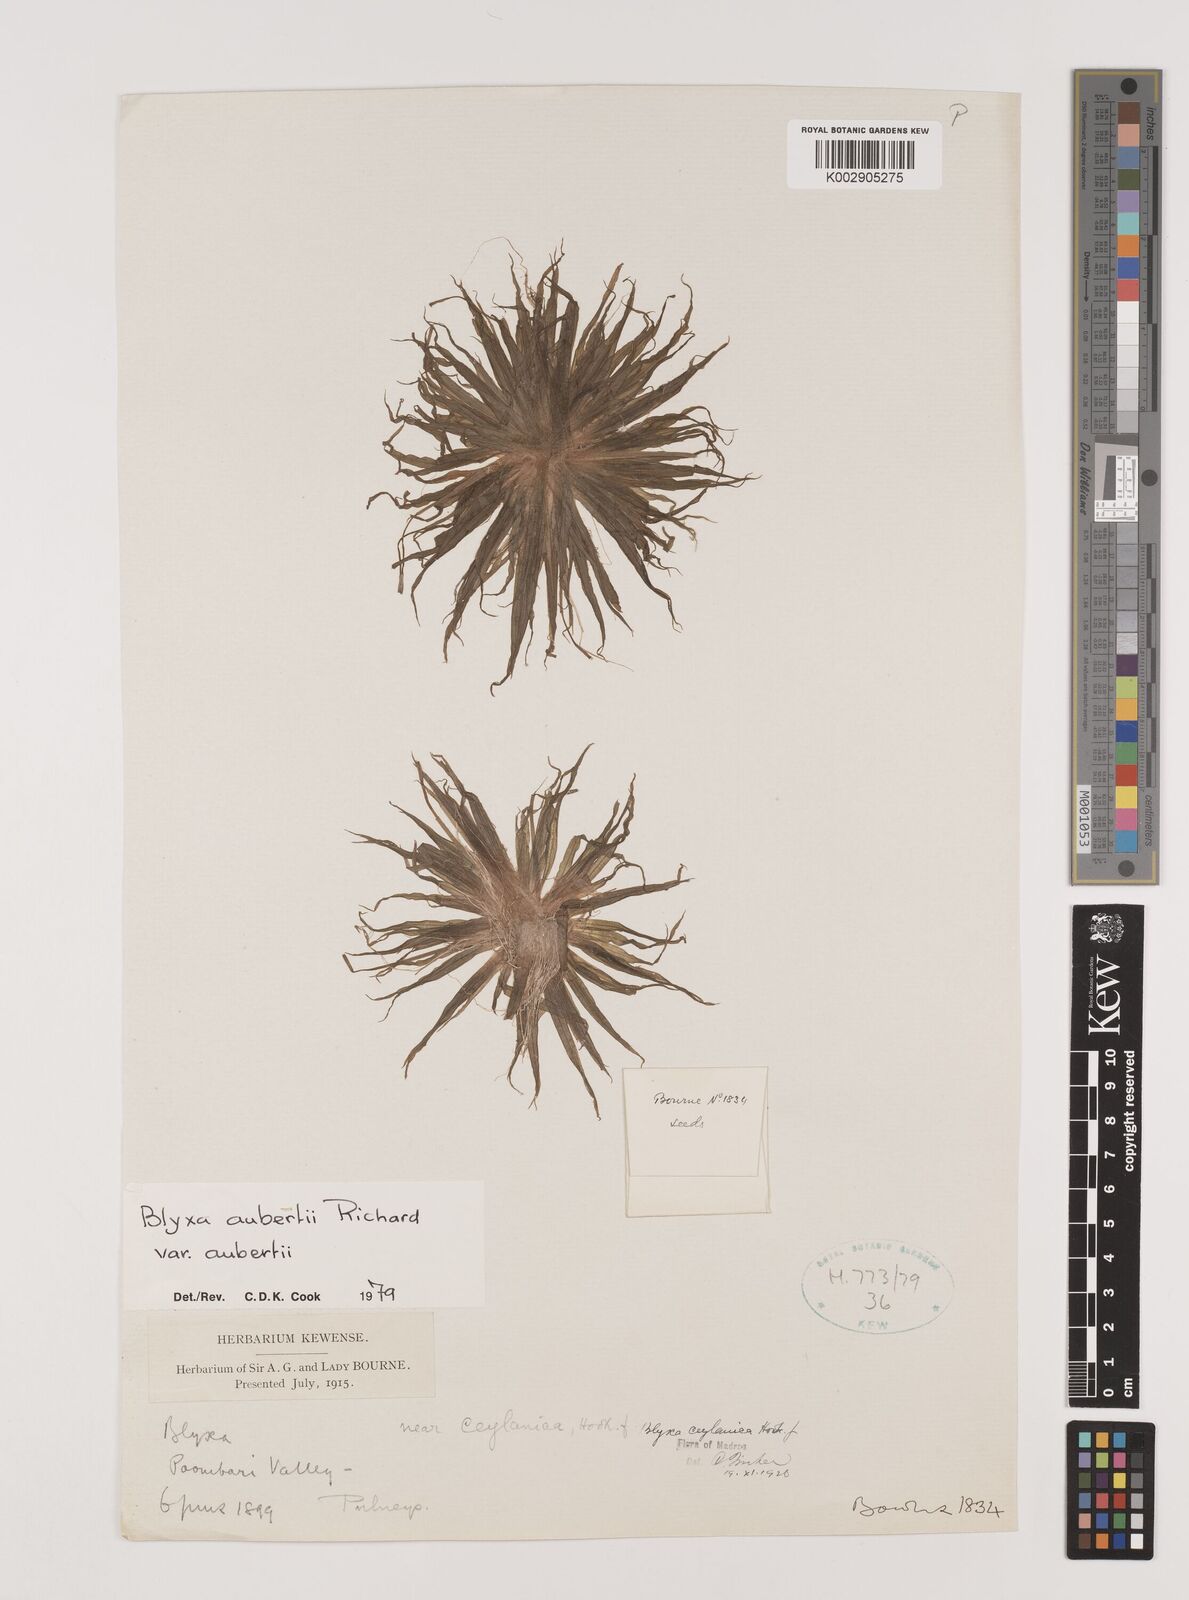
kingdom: Plantae
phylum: Tracheophyta
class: Liliopsida
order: Alismatales
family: Hydrocharitaceae
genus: Blyxa
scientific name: Blyxa aubertii
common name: Roundfruit blyxa
